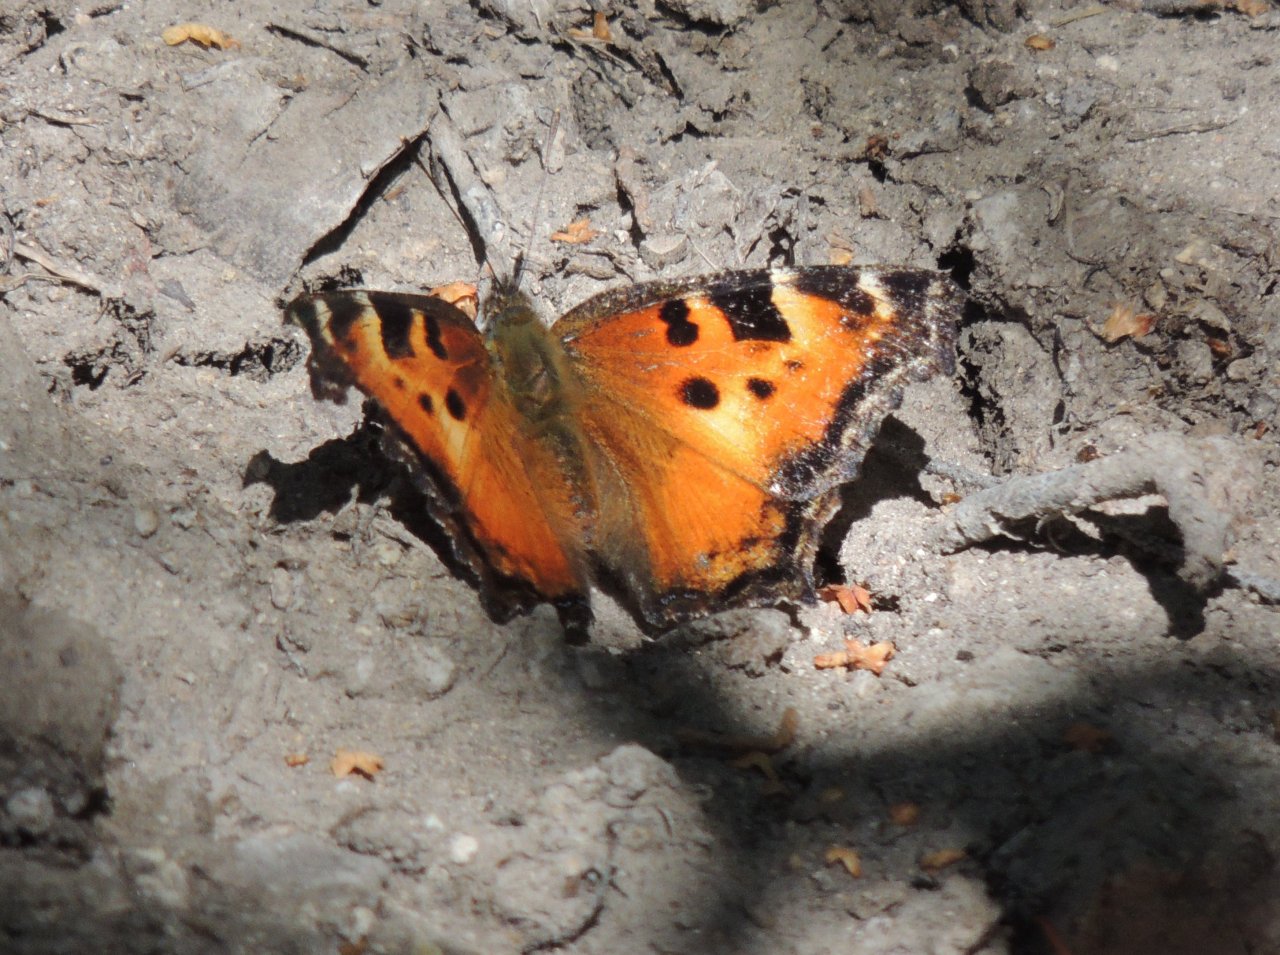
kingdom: Animalia
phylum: Arthropoda
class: Insecta
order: Lepidoptera
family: Nymphalidae
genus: Nymphalis
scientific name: Nymphalis californica
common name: California Tortoiseshell
